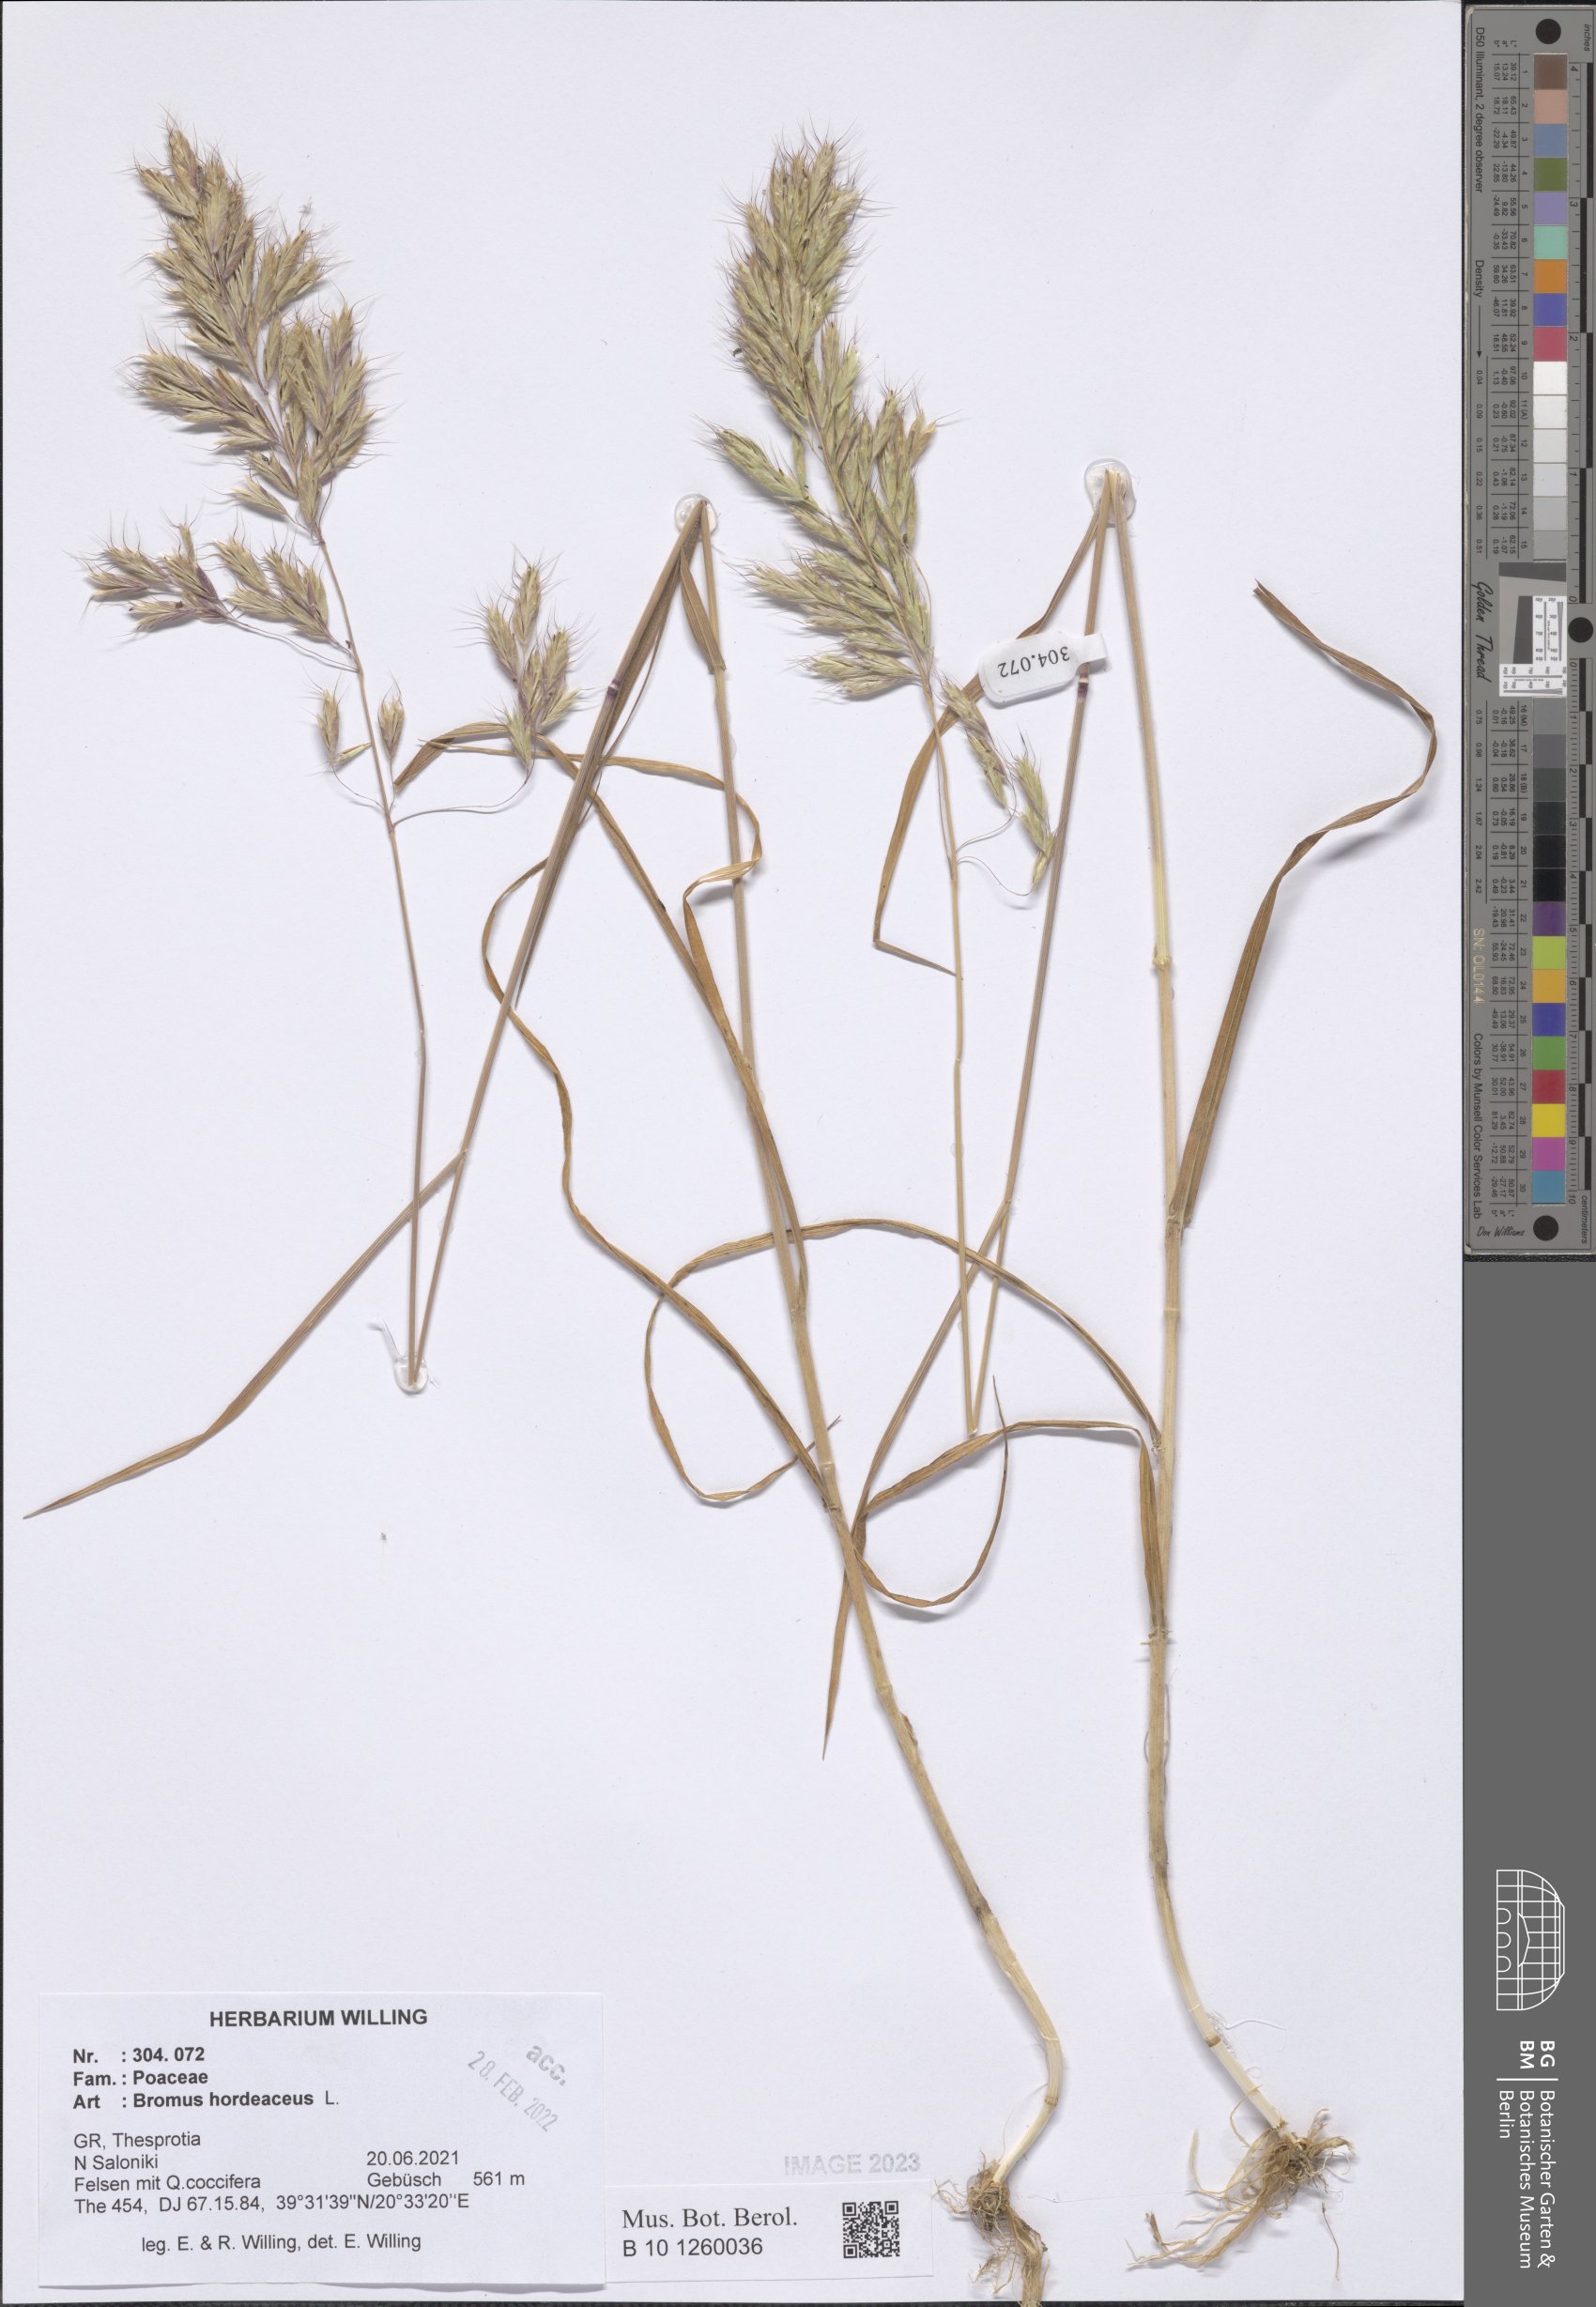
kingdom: Plantae
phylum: Tracheophyta
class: Liliopsida
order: Poales
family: Poaceae
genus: Bromus
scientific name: Bromus hordeaceus
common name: Soft brome
